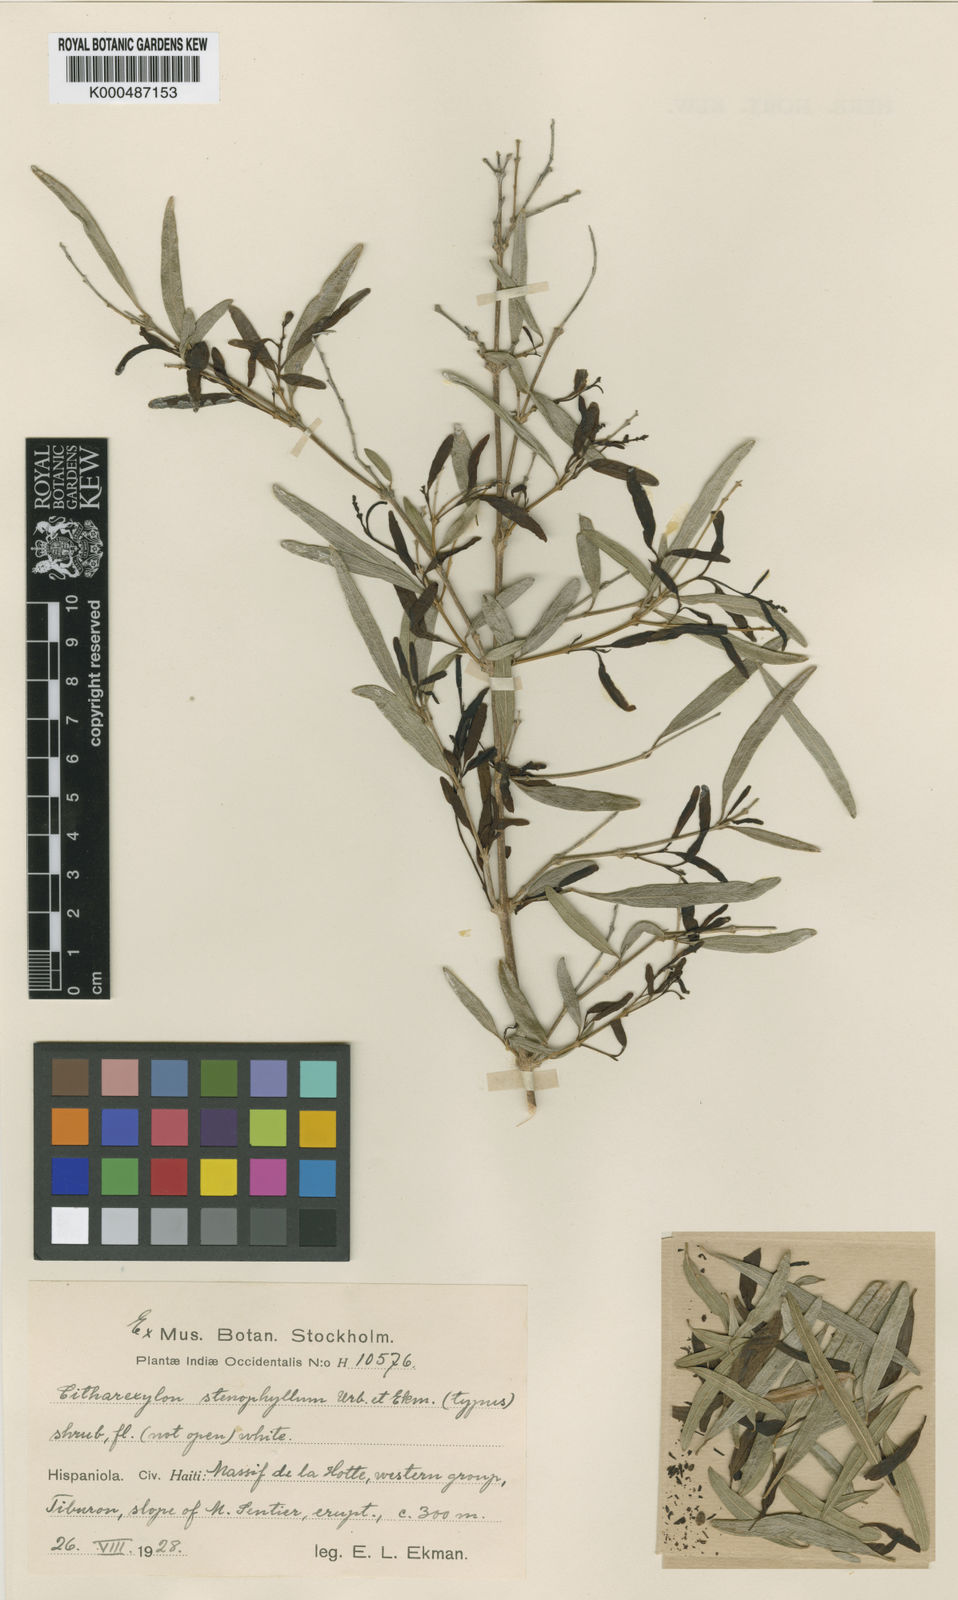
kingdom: Plantae
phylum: Tracheophyta
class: Magnoliopsida
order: Lamiales
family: Verbenaceae
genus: Citharexylum
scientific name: Citharexylum stenophyllum
